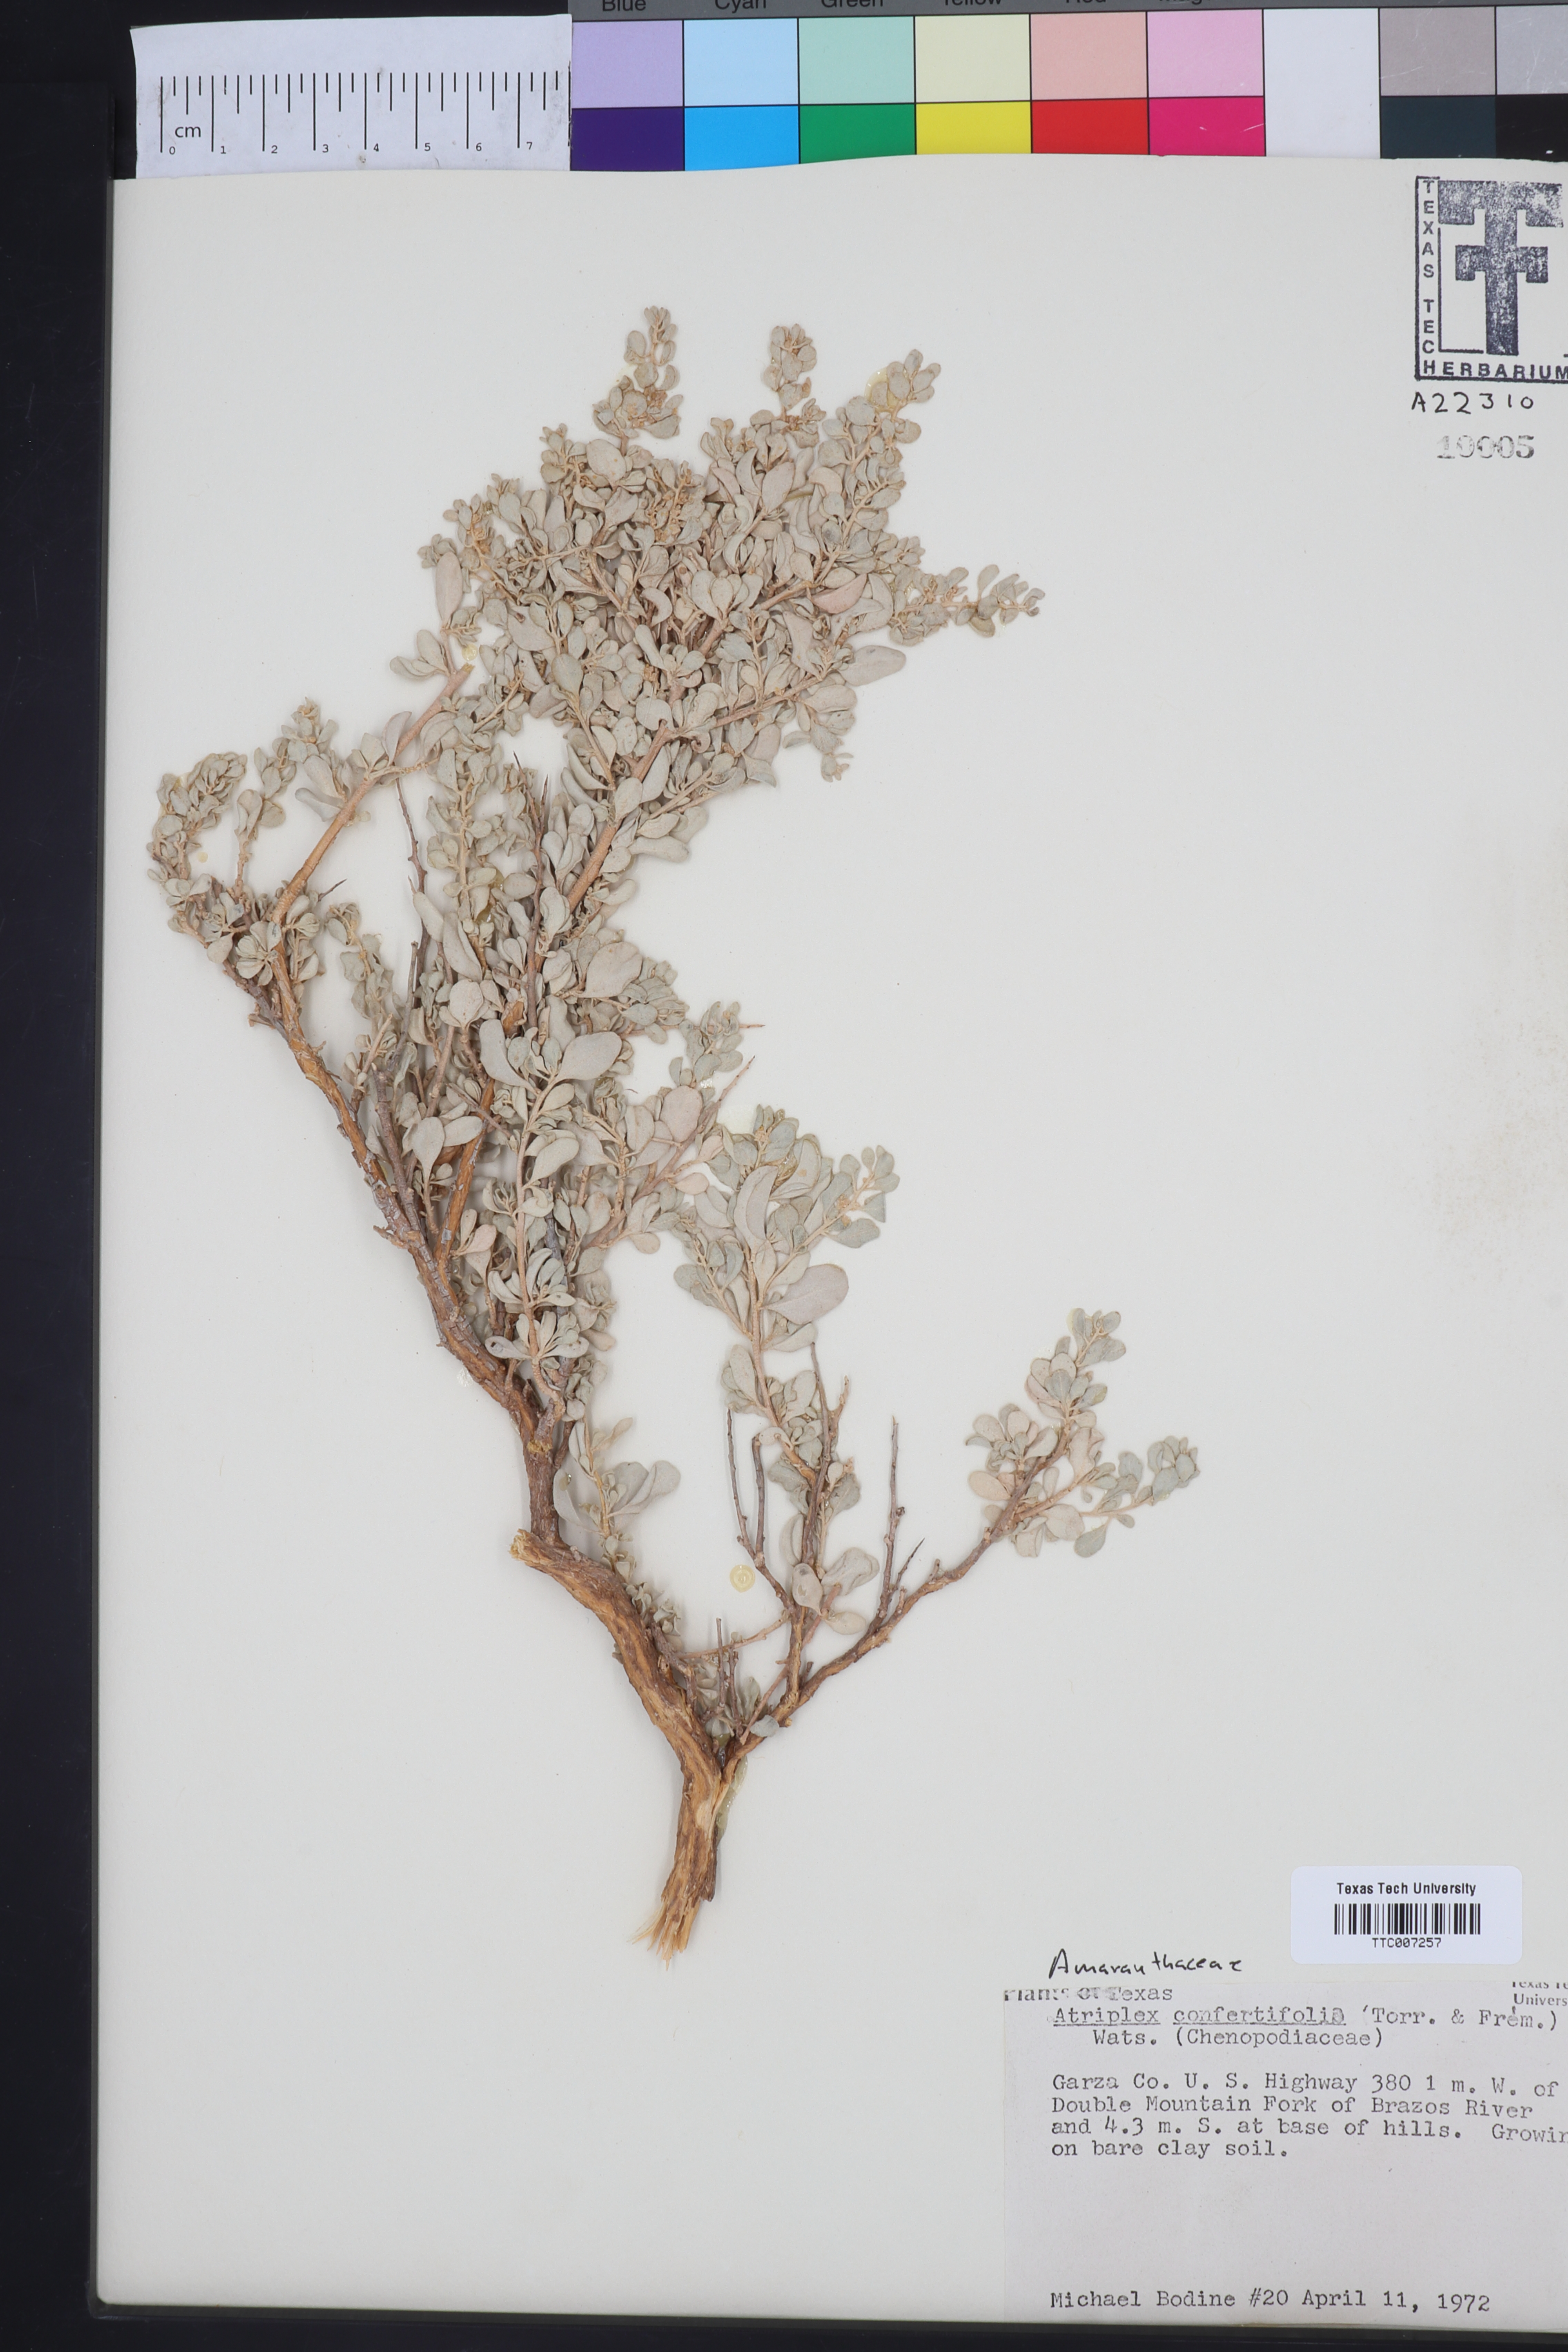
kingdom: Plantae
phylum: Tracheophyta
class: Magnoliopsida
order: Caryophyllales
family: Amaranthaceae
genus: Atriplex
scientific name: Atriplex confertifolia
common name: Shadscale
